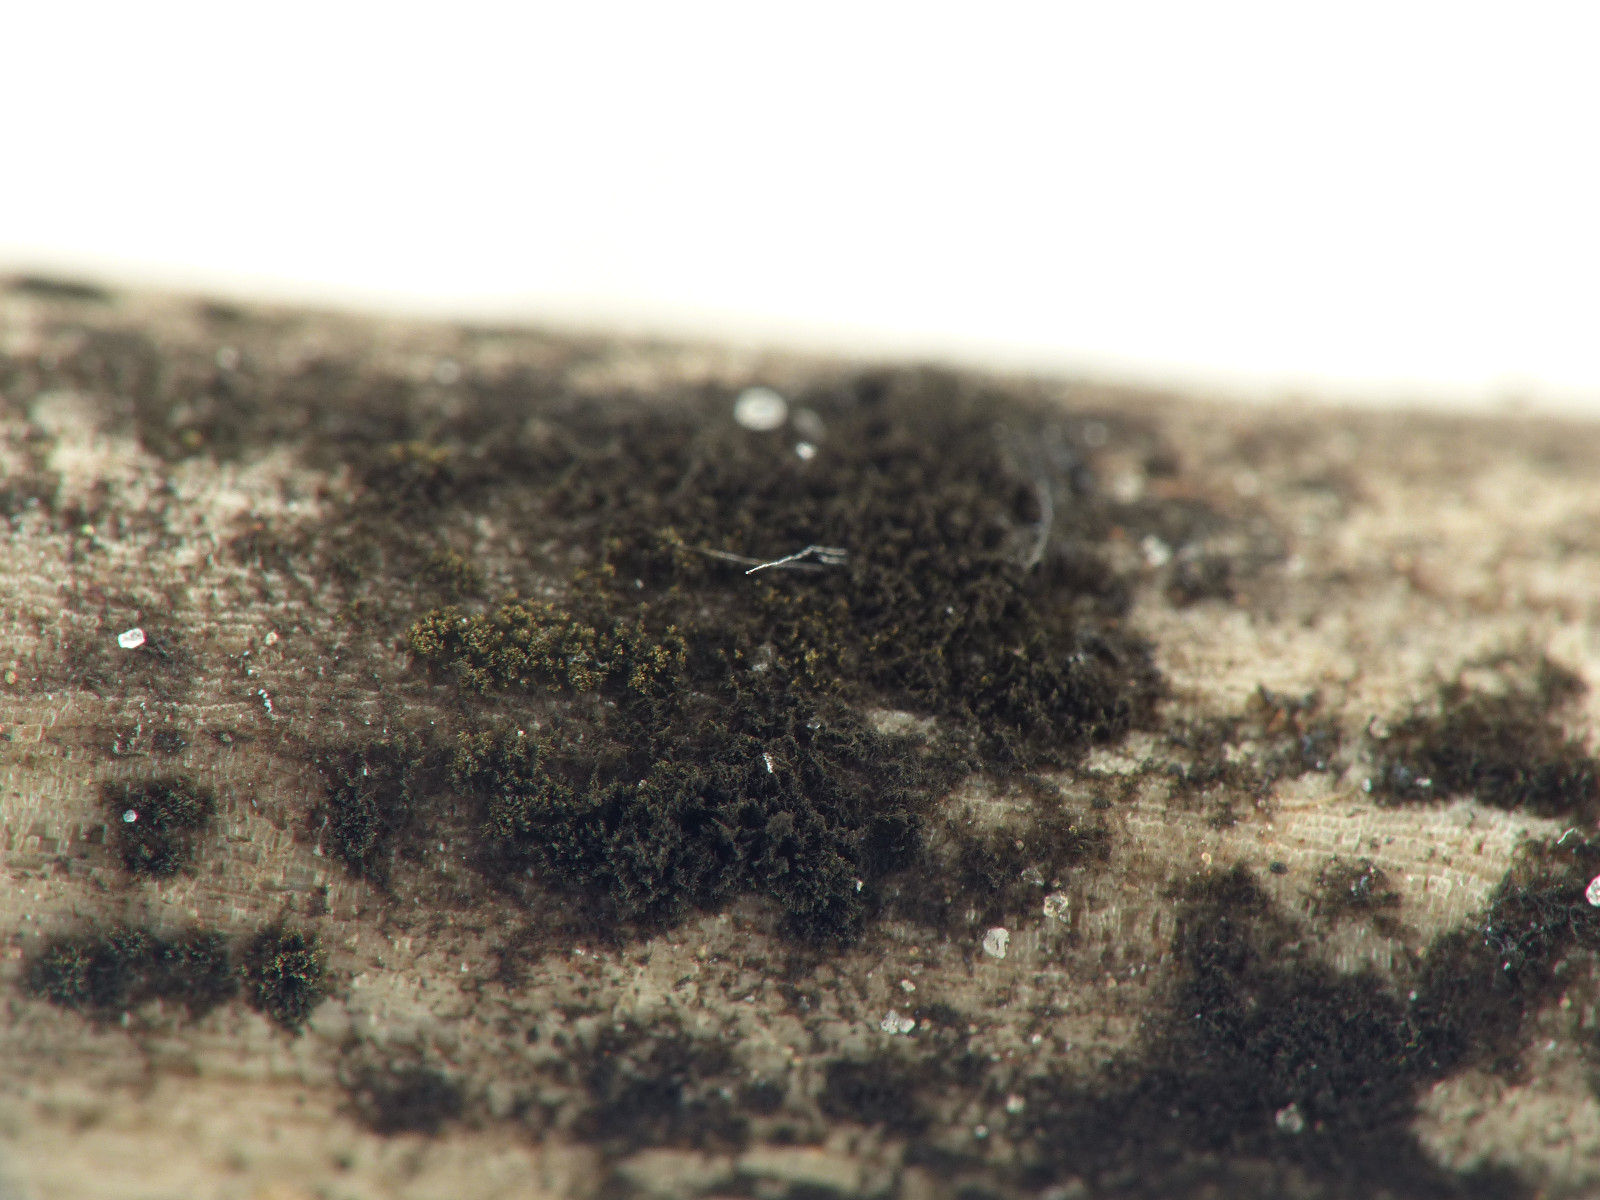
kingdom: Fungi
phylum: Ascomycota
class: Dothideomycetes
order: Pleosporales
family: Torulaceae
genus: Torula
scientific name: Torula herbarum
